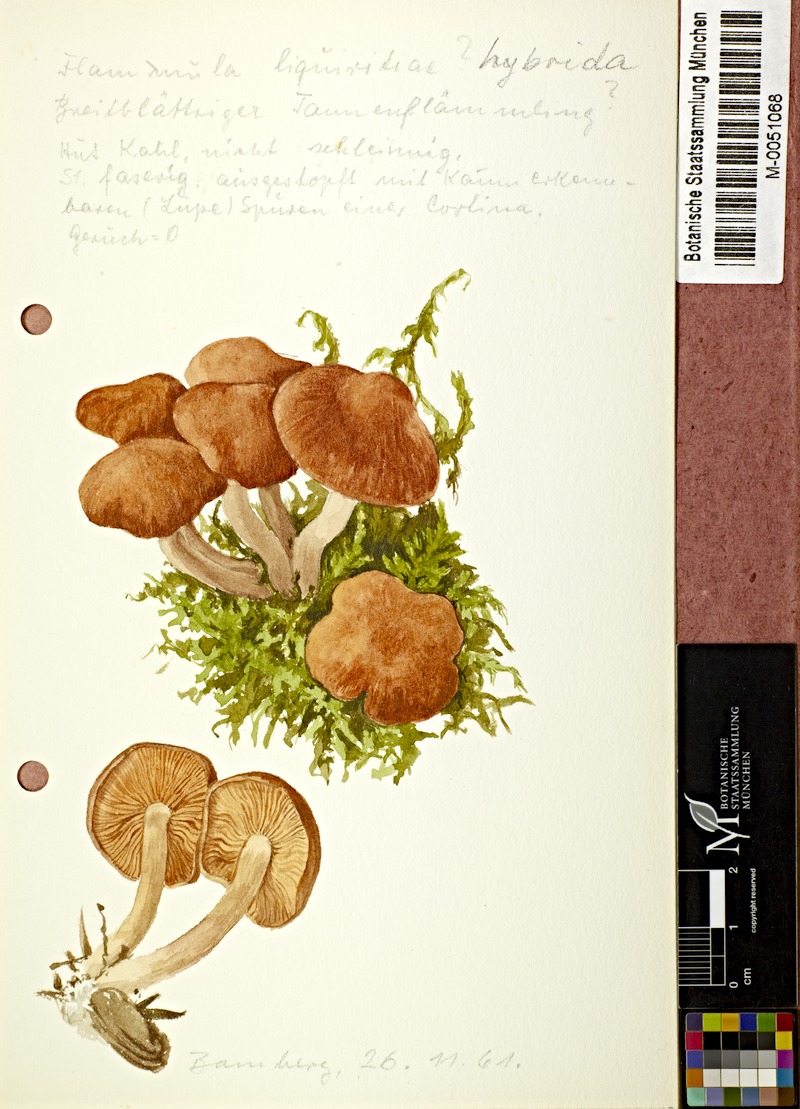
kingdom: Fungi
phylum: Basidiomycota
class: Agaricomycetes
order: Agaricales
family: Hymenogastraceae
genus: Gymnopilus
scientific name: Gymnopilus penetrans
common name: Common rustgill
